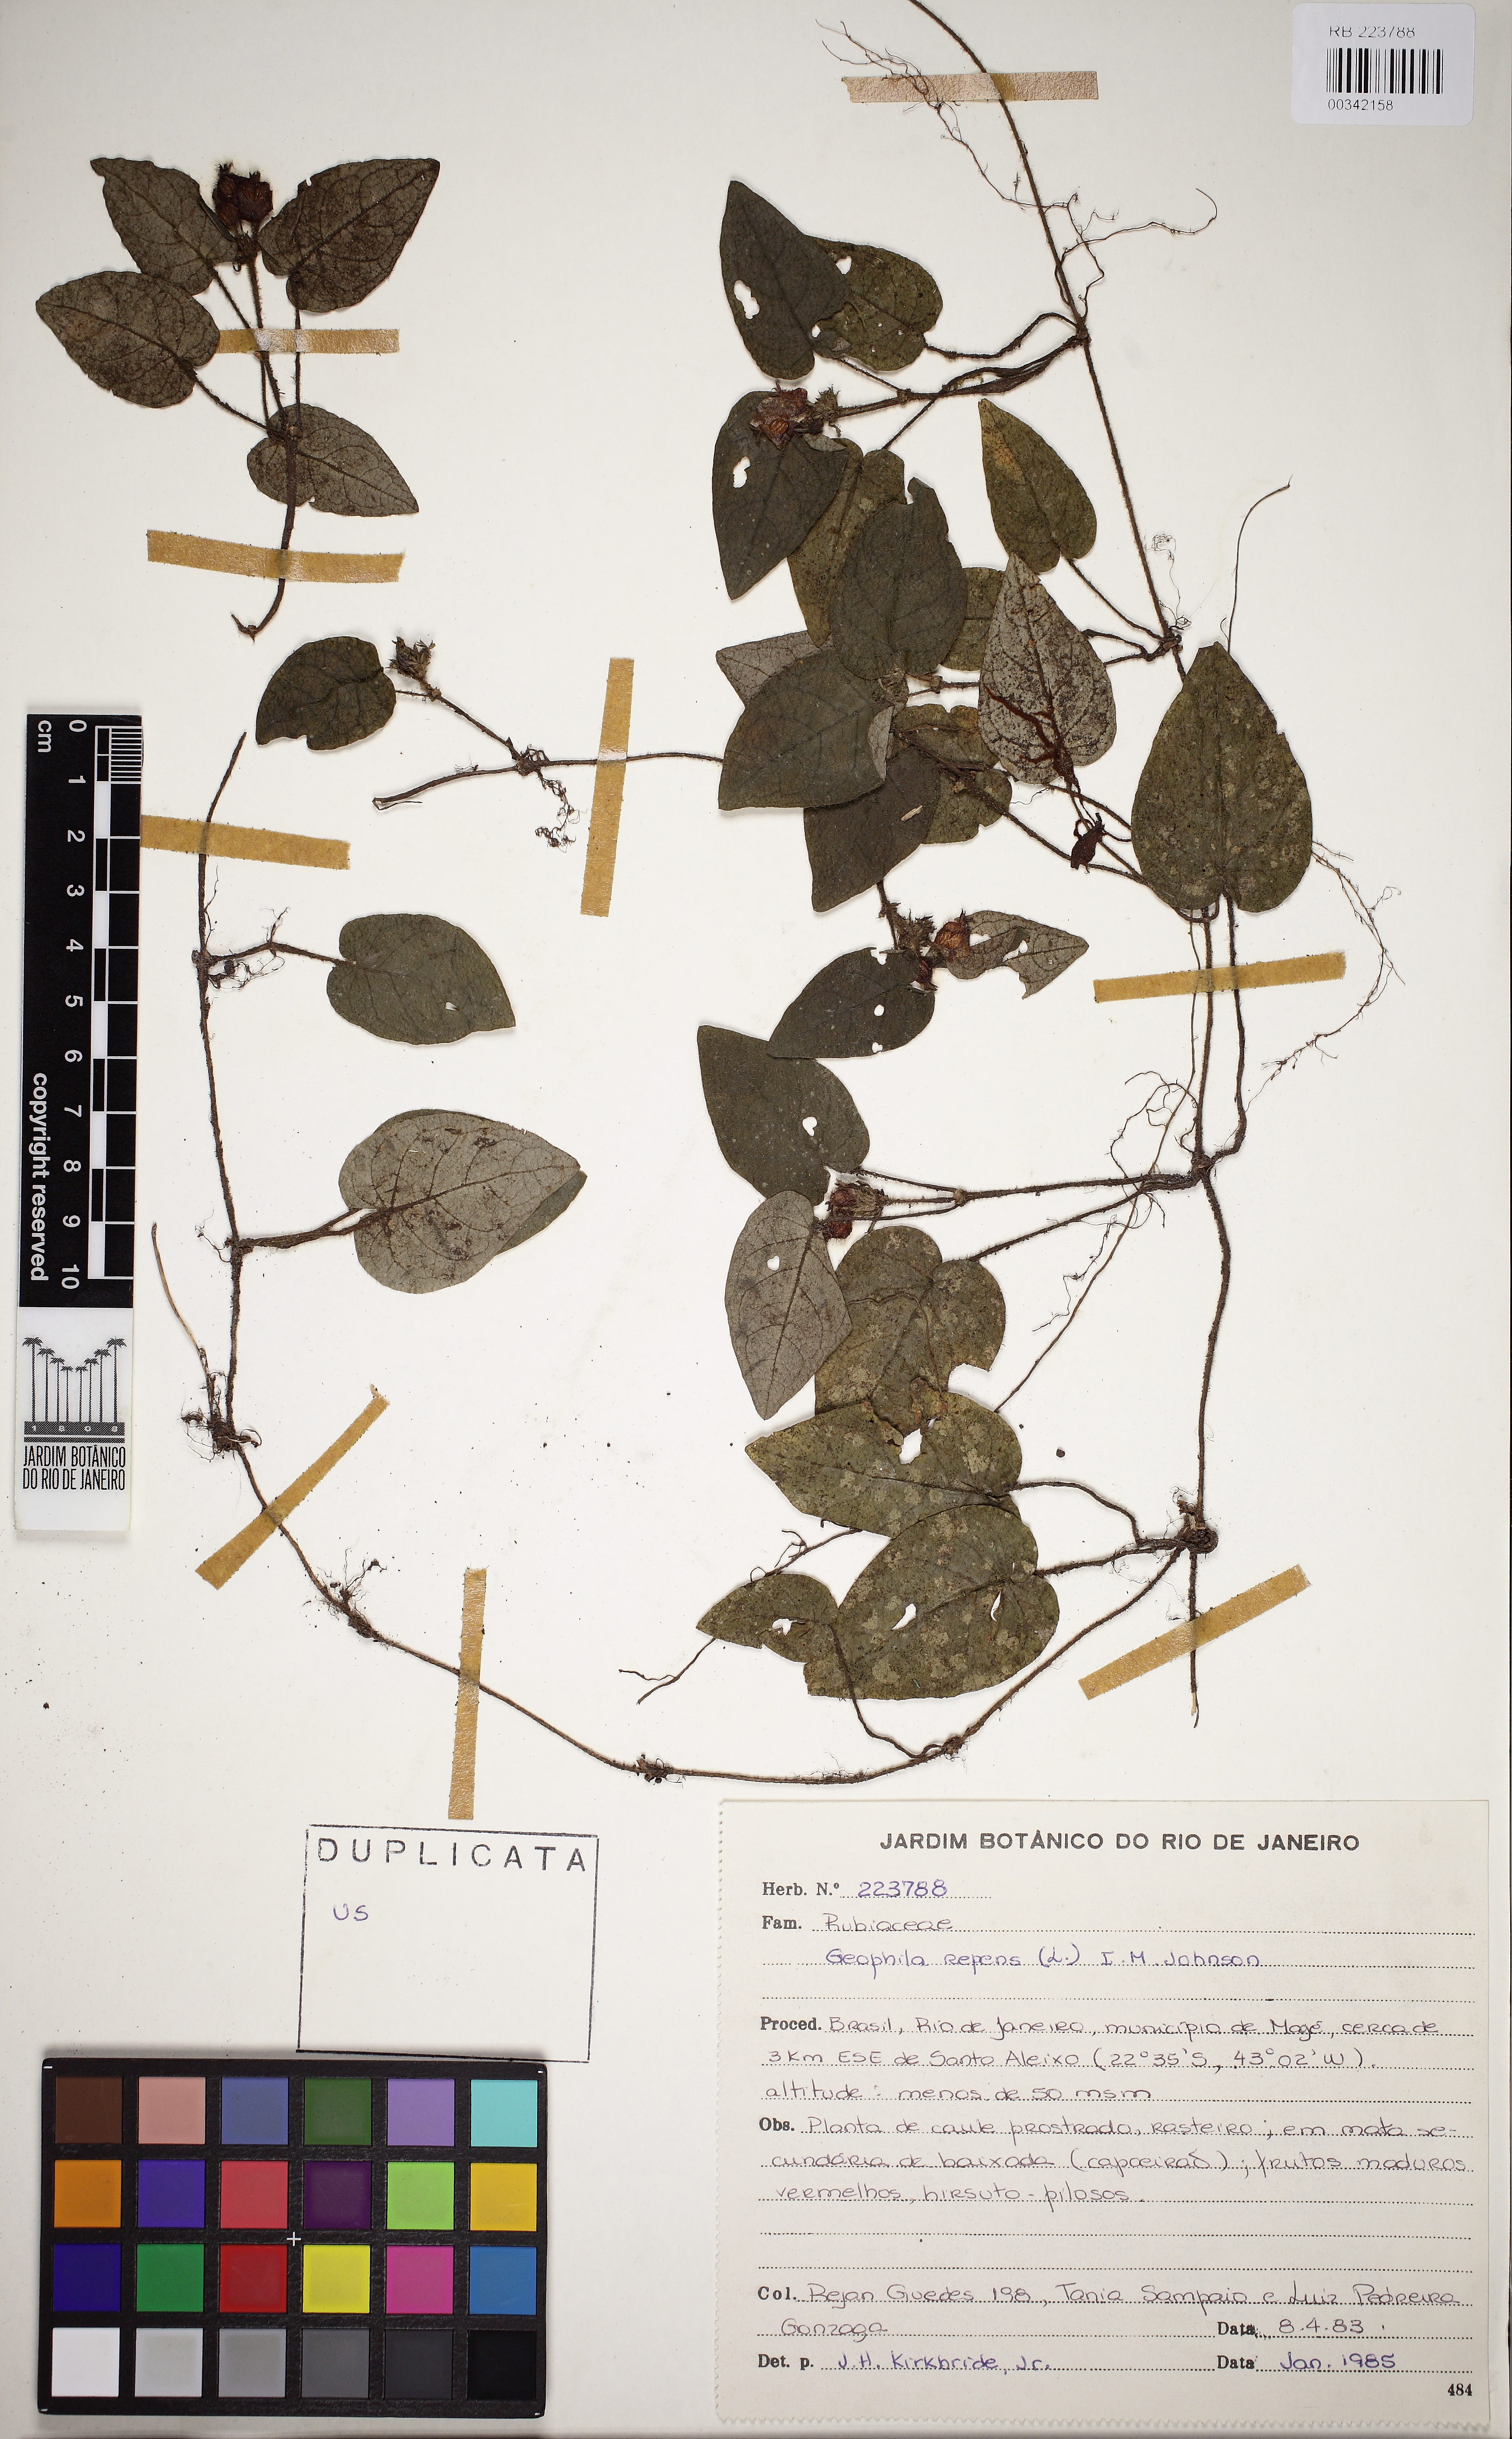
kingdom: Plantae
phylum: Tracheophyta
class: Magnoliopsida
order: Gentianales
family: Rubiaceae
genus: Geophila
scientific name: Geophila repens
